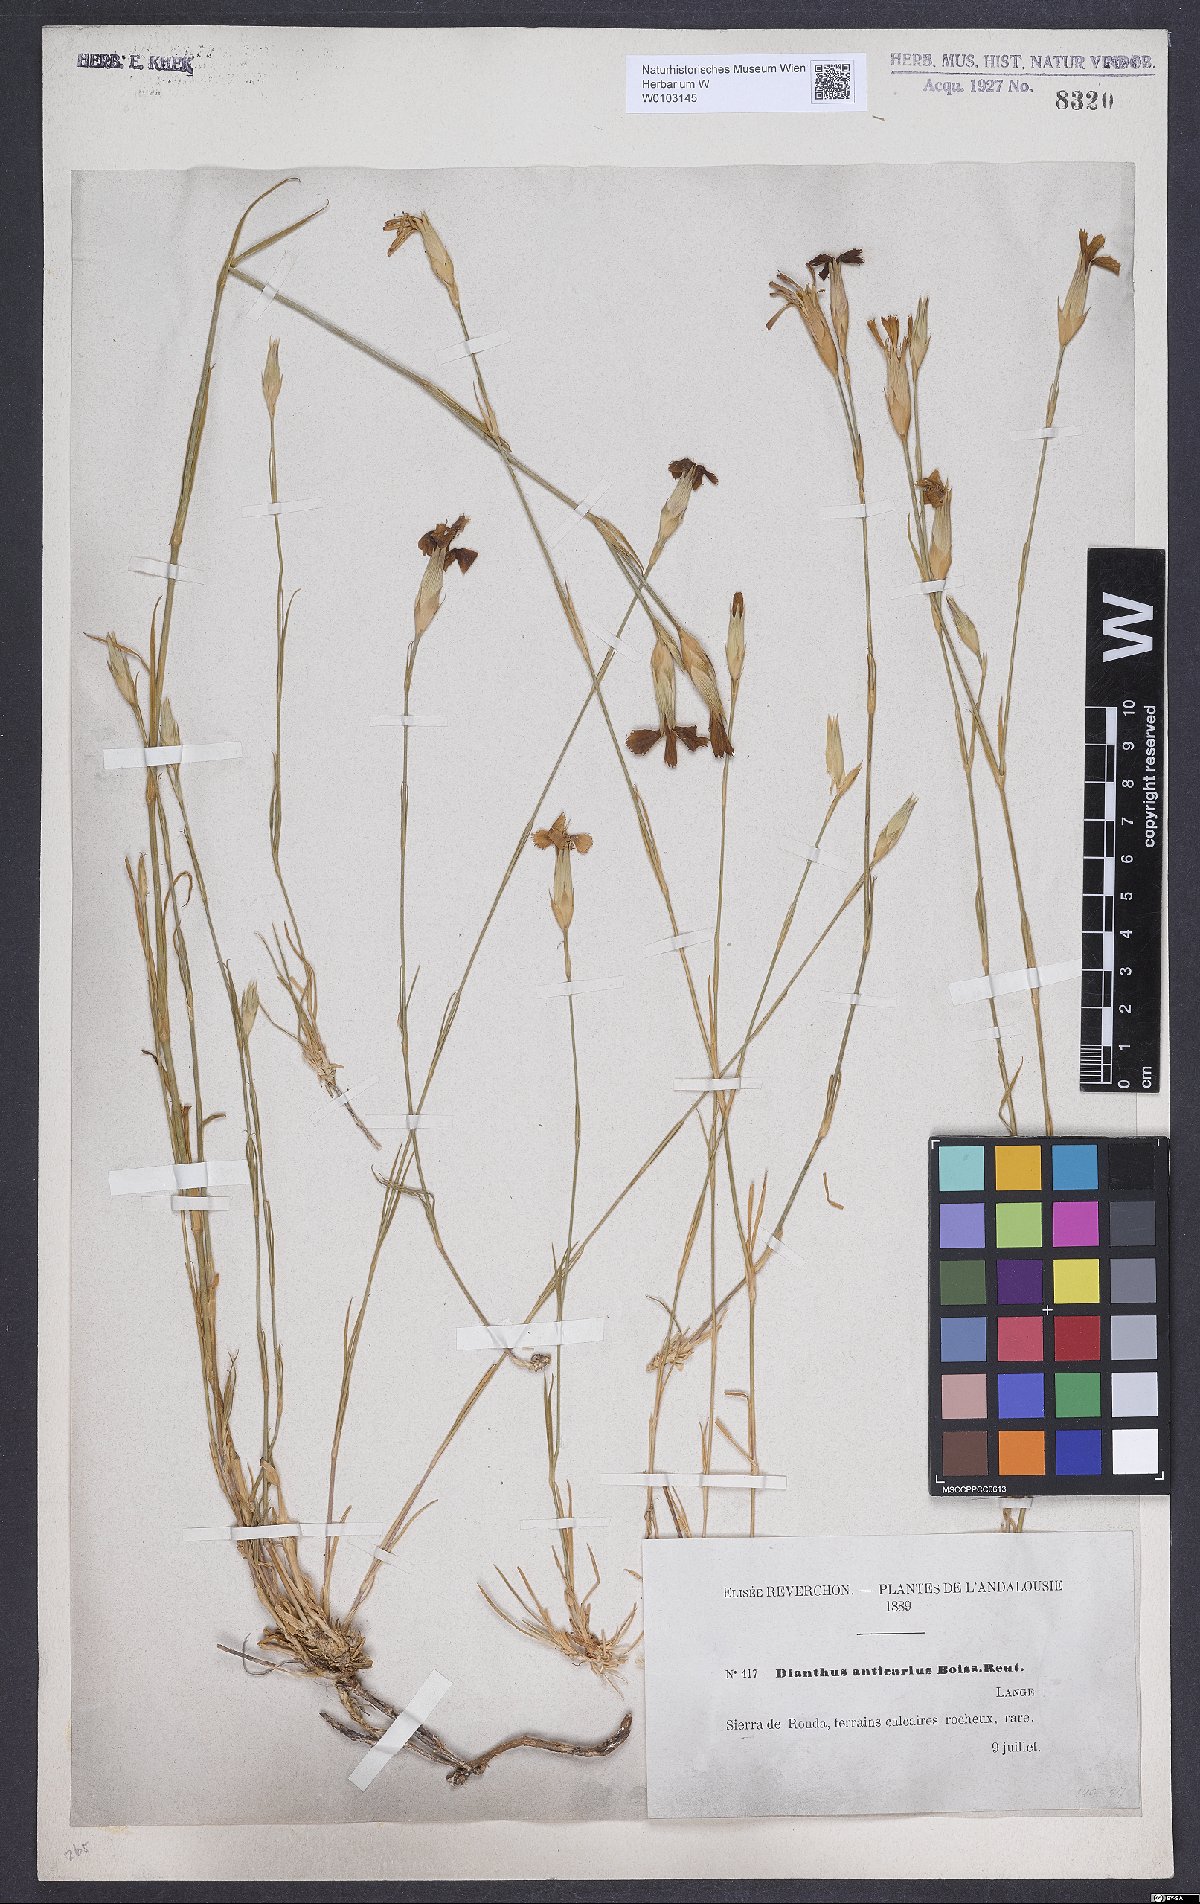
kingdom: Plantae
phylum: Tracheophyta
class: Magnoliopsida
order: Caryophyllales
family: Caryophyllaceae
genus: Dianthus
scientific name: Dianthus anticarius
